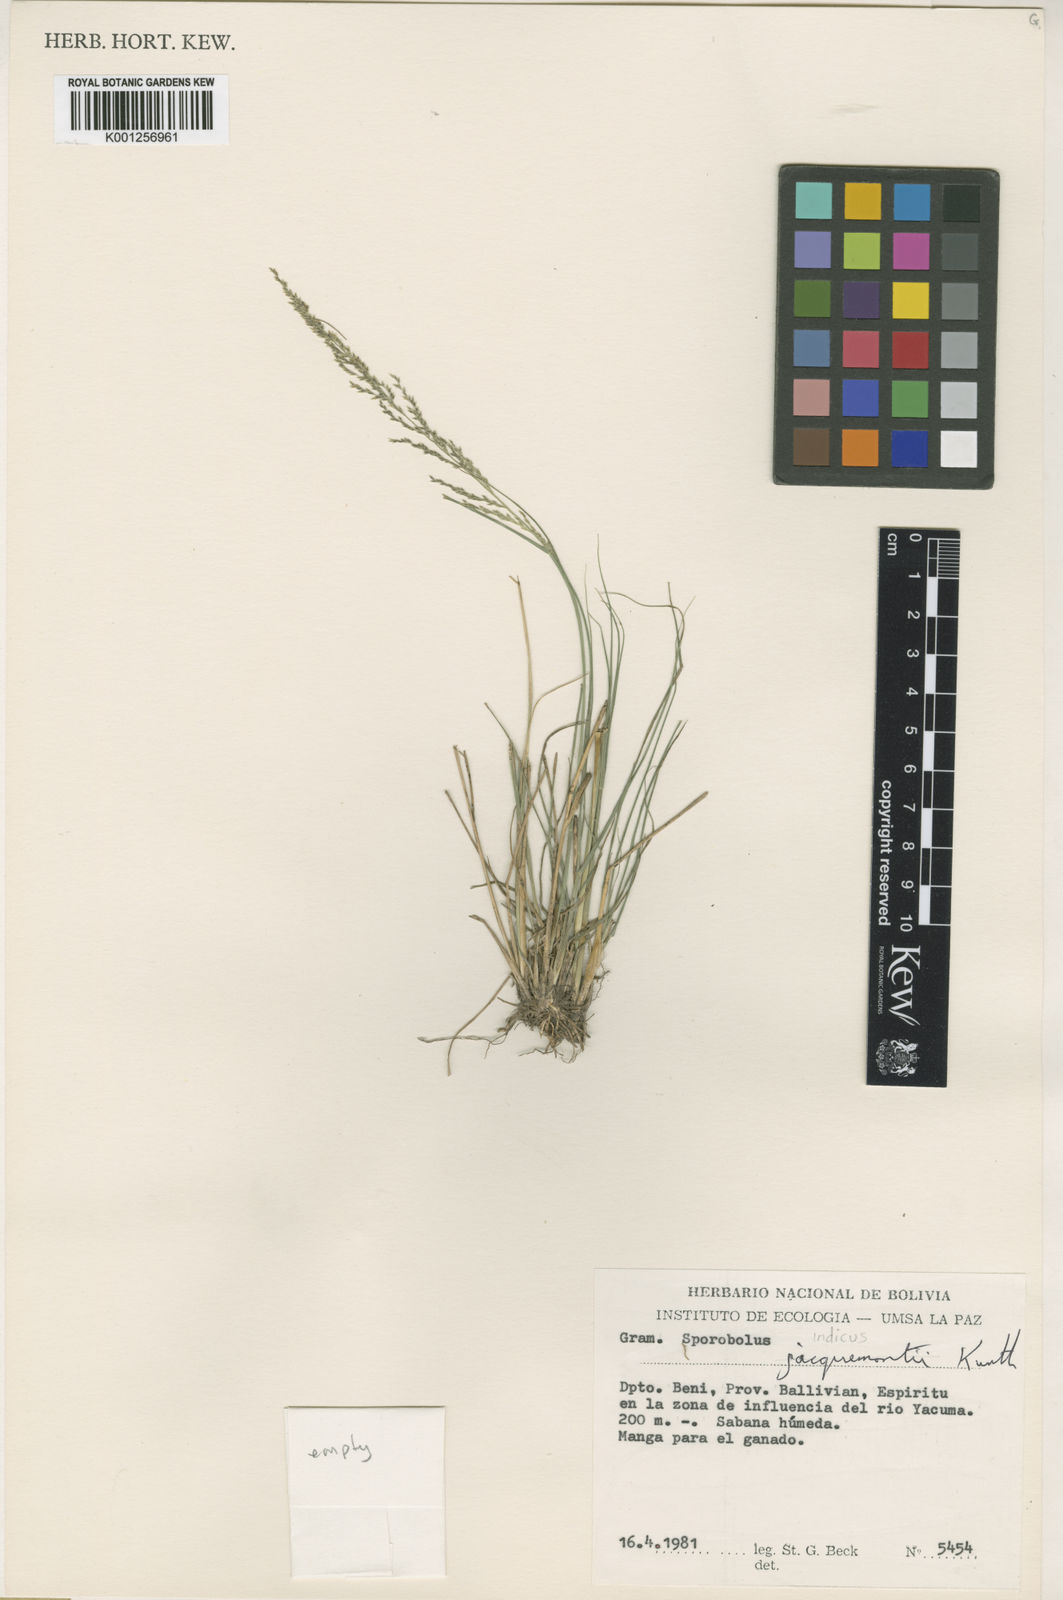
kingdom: Plantae
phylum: Tracheophyta
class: Liliopsida
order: Poales
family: Poaceae
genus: Sporobolus
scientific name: Sporobolus indicus
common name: Smut grass
